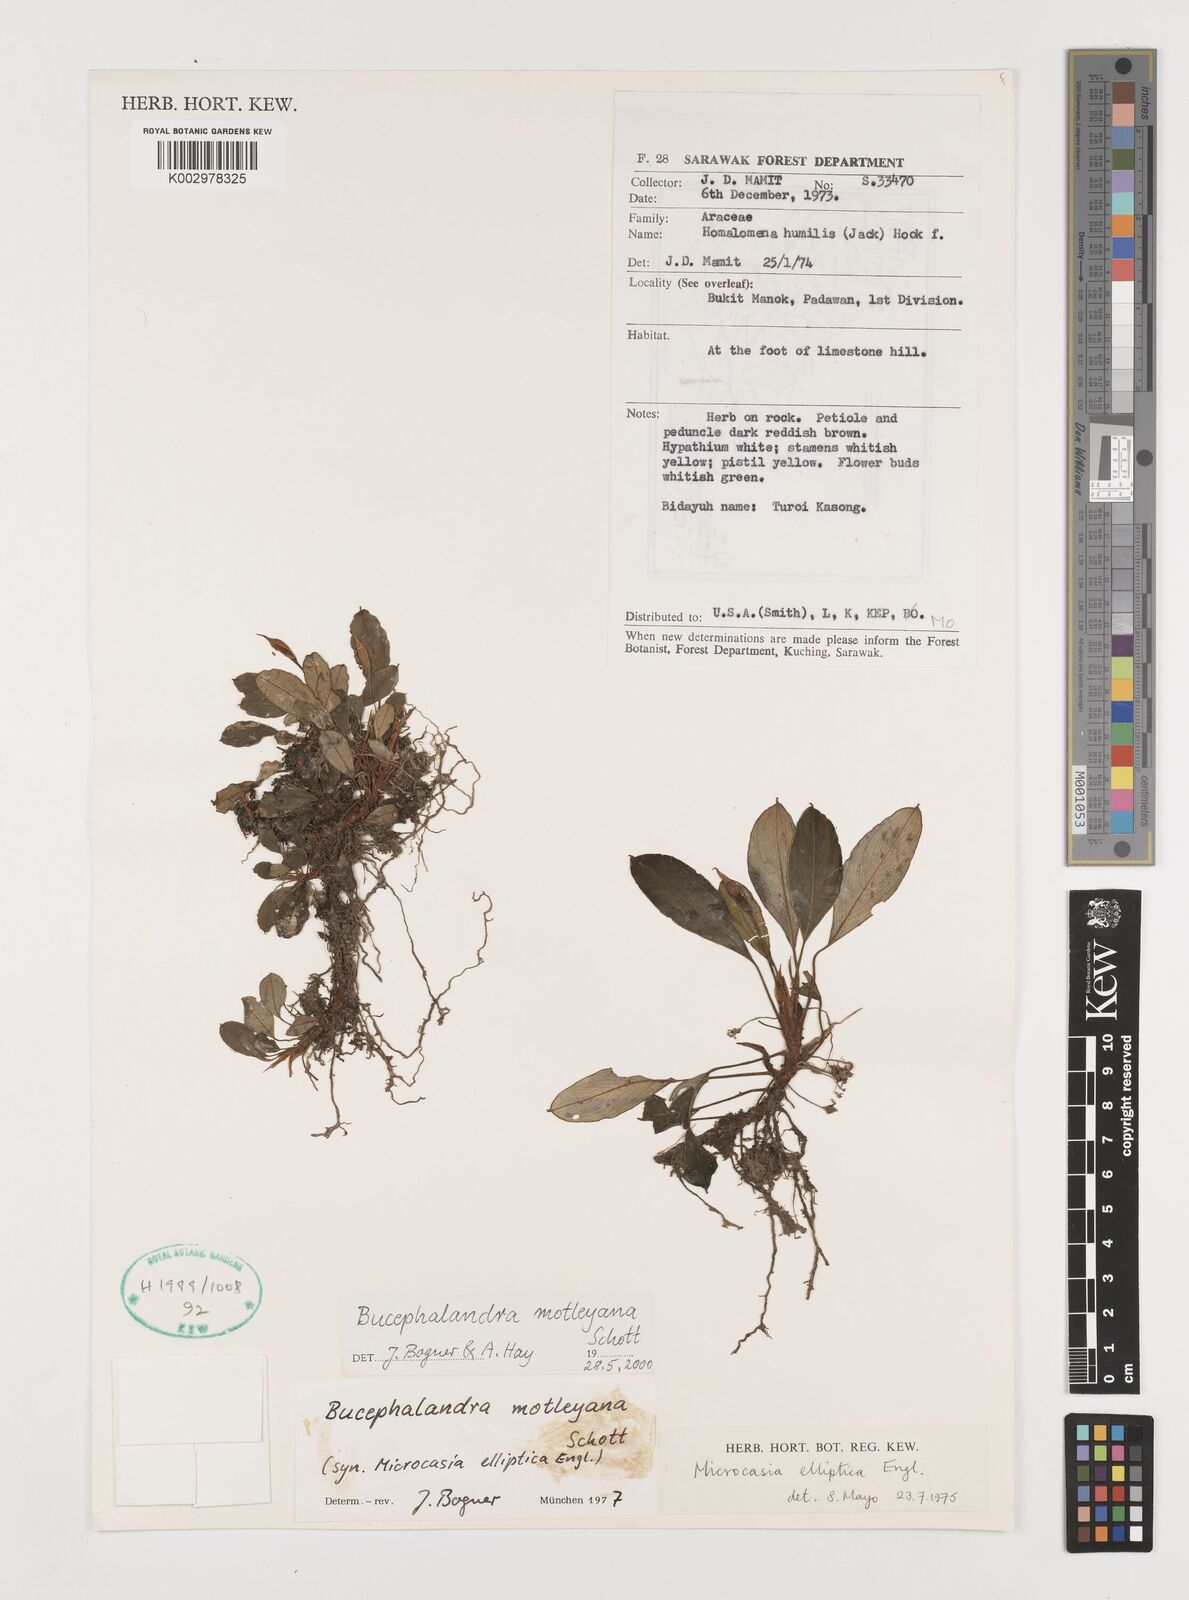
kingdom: Plantae
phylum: Tracheophyta
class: Liliopsida
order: Alismatales
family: Araceae
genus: Bucephalandra
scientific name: Bucephalandra motleyana
